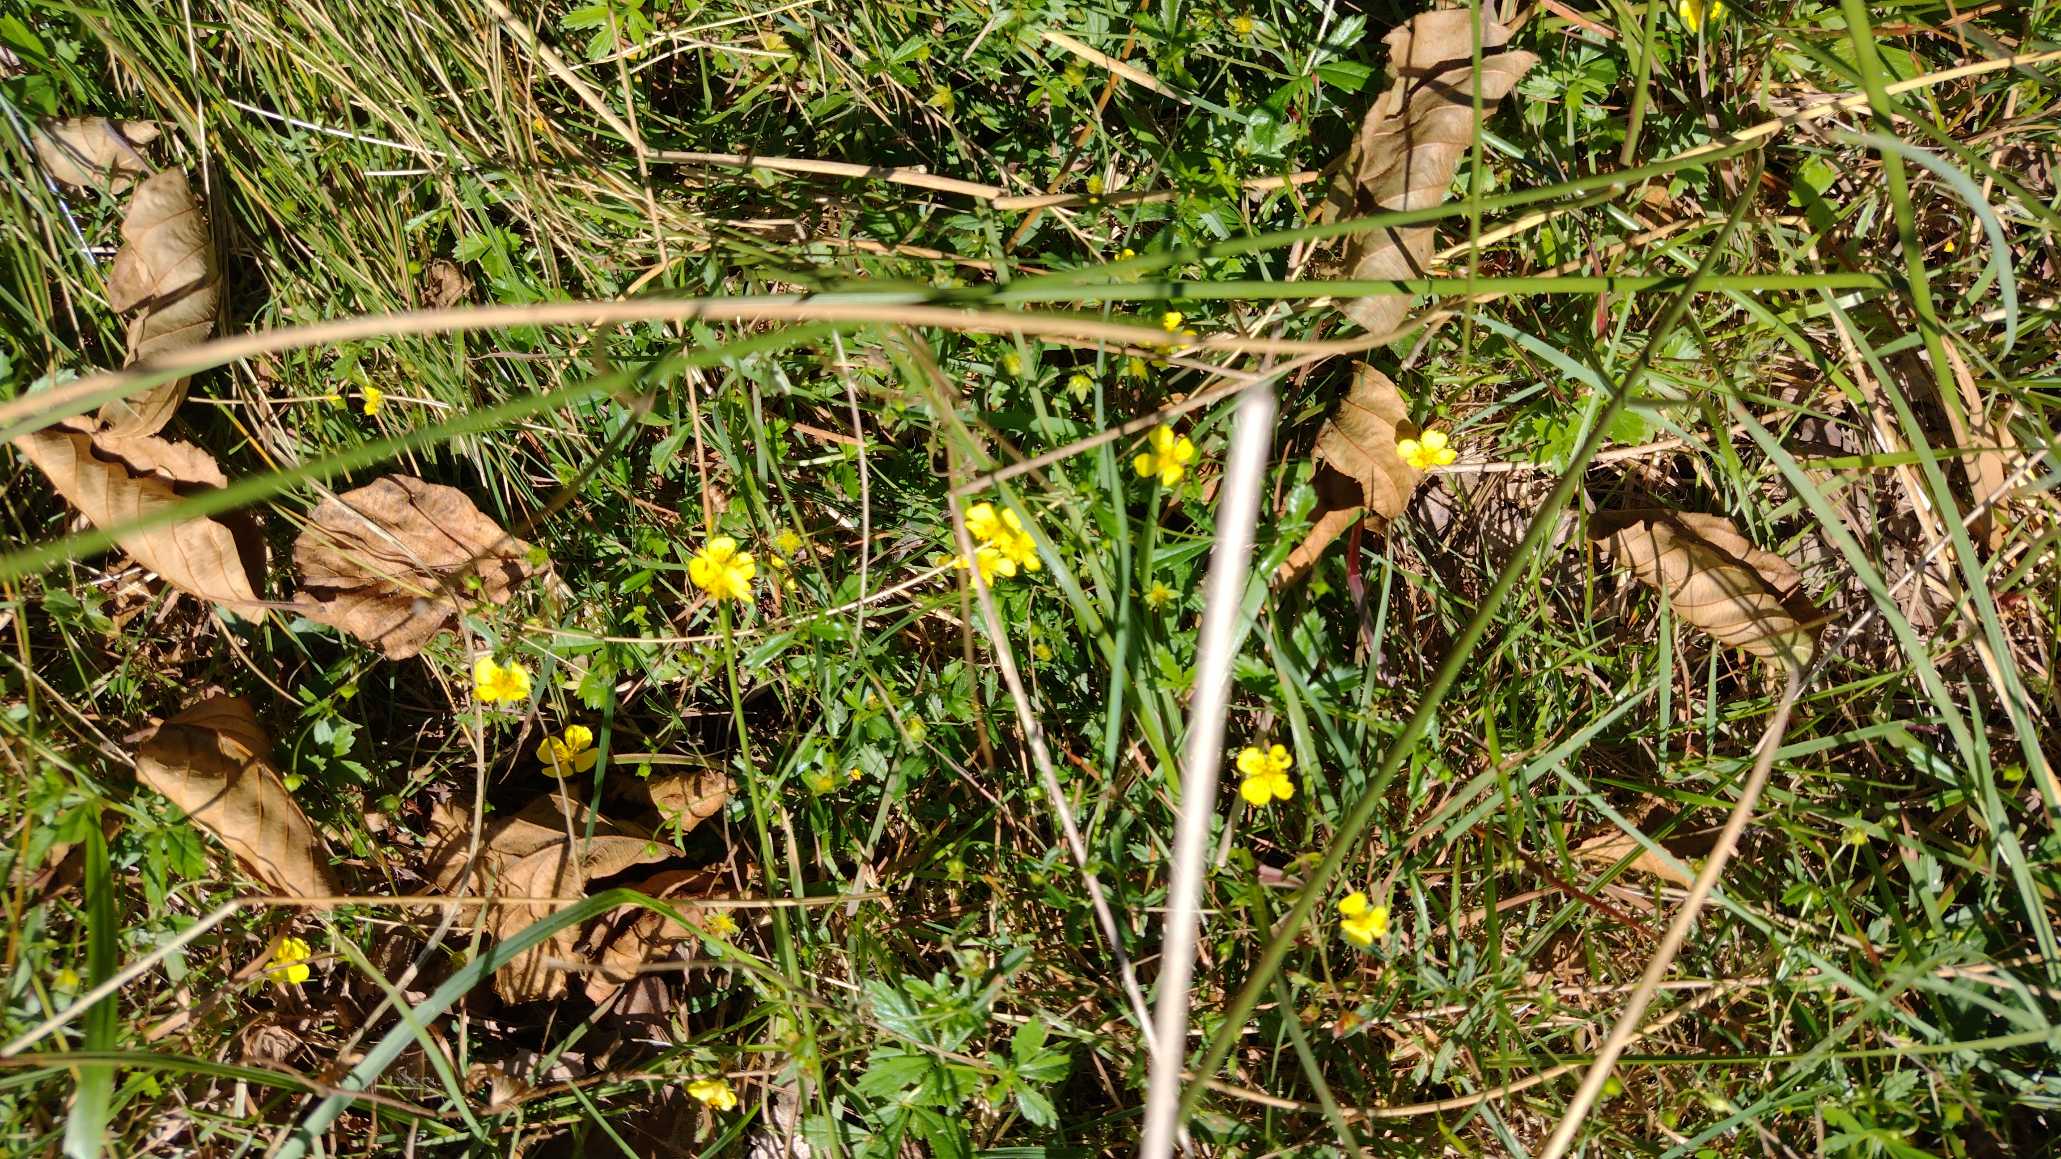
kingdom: Plantae
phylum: Tracheophyta
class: Magnoliopsida
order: Rosales
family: Rosaceae
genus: Potentilla
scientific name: Potentilla erecta
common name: Tormentil
